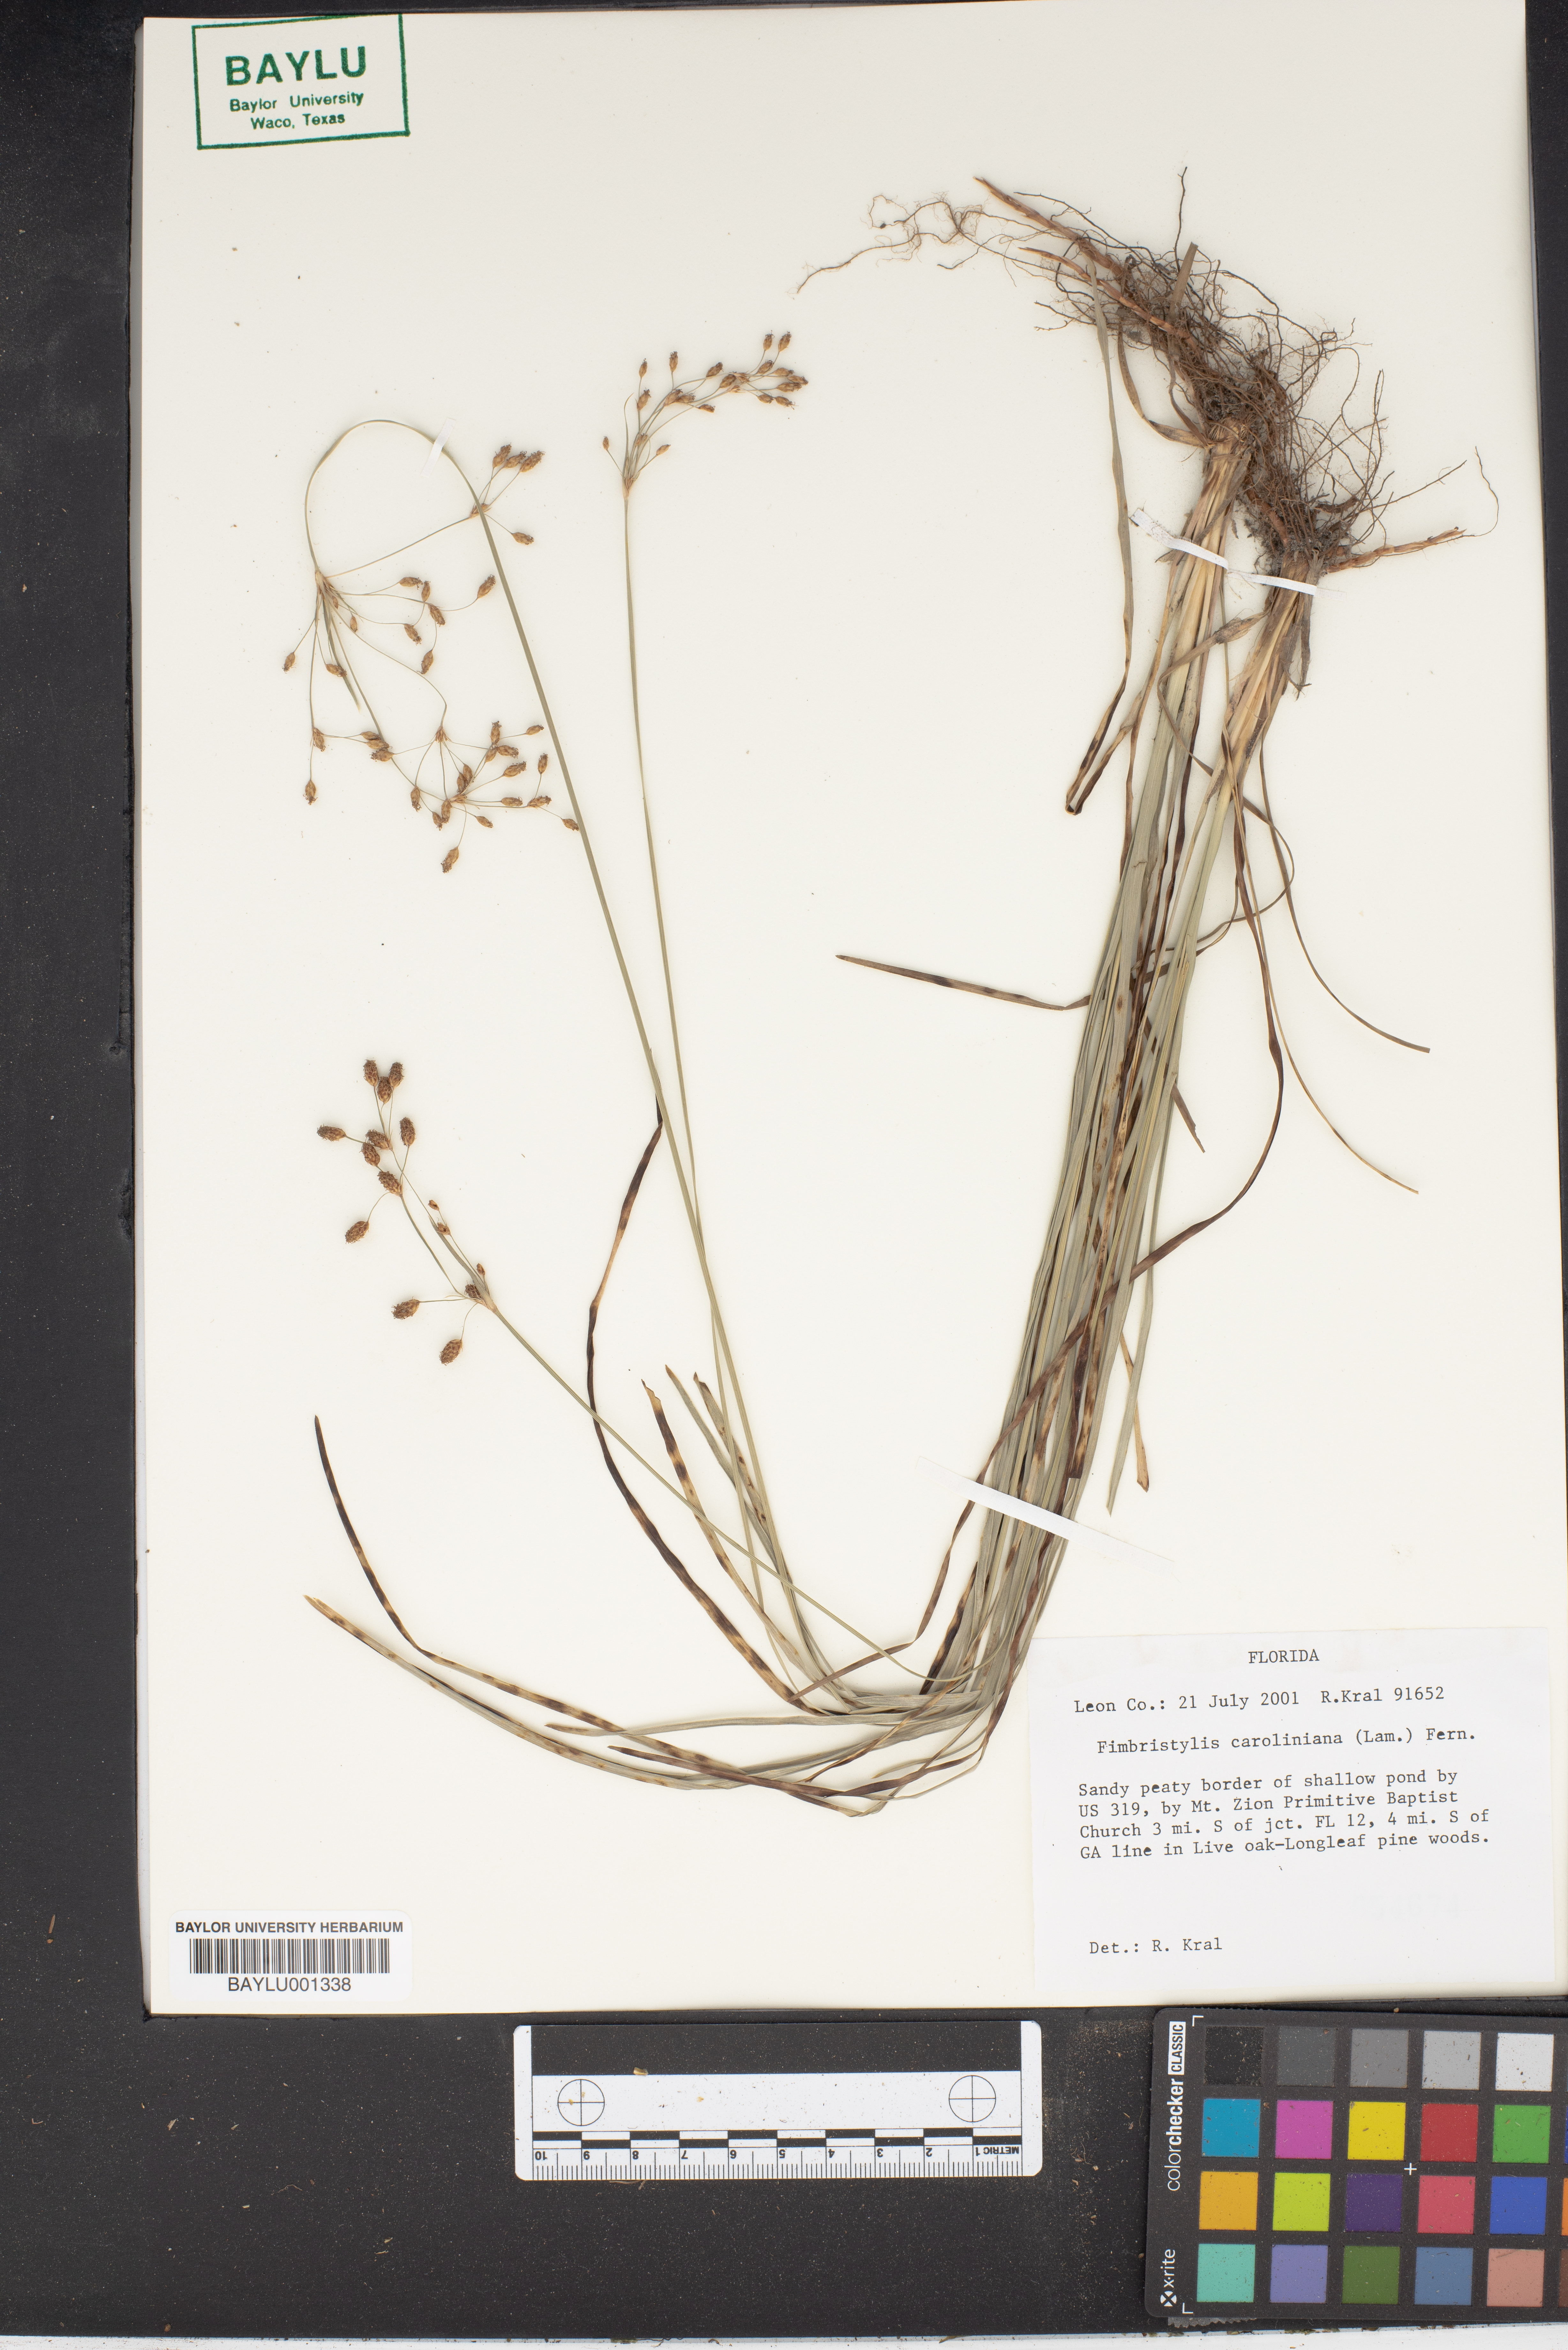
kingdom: Plantae
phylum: Tracheophyta
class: Liliopsida
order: Poales
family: Cyperaceae
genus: Fimbristylis
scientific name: Fimbristylis caroliniana
